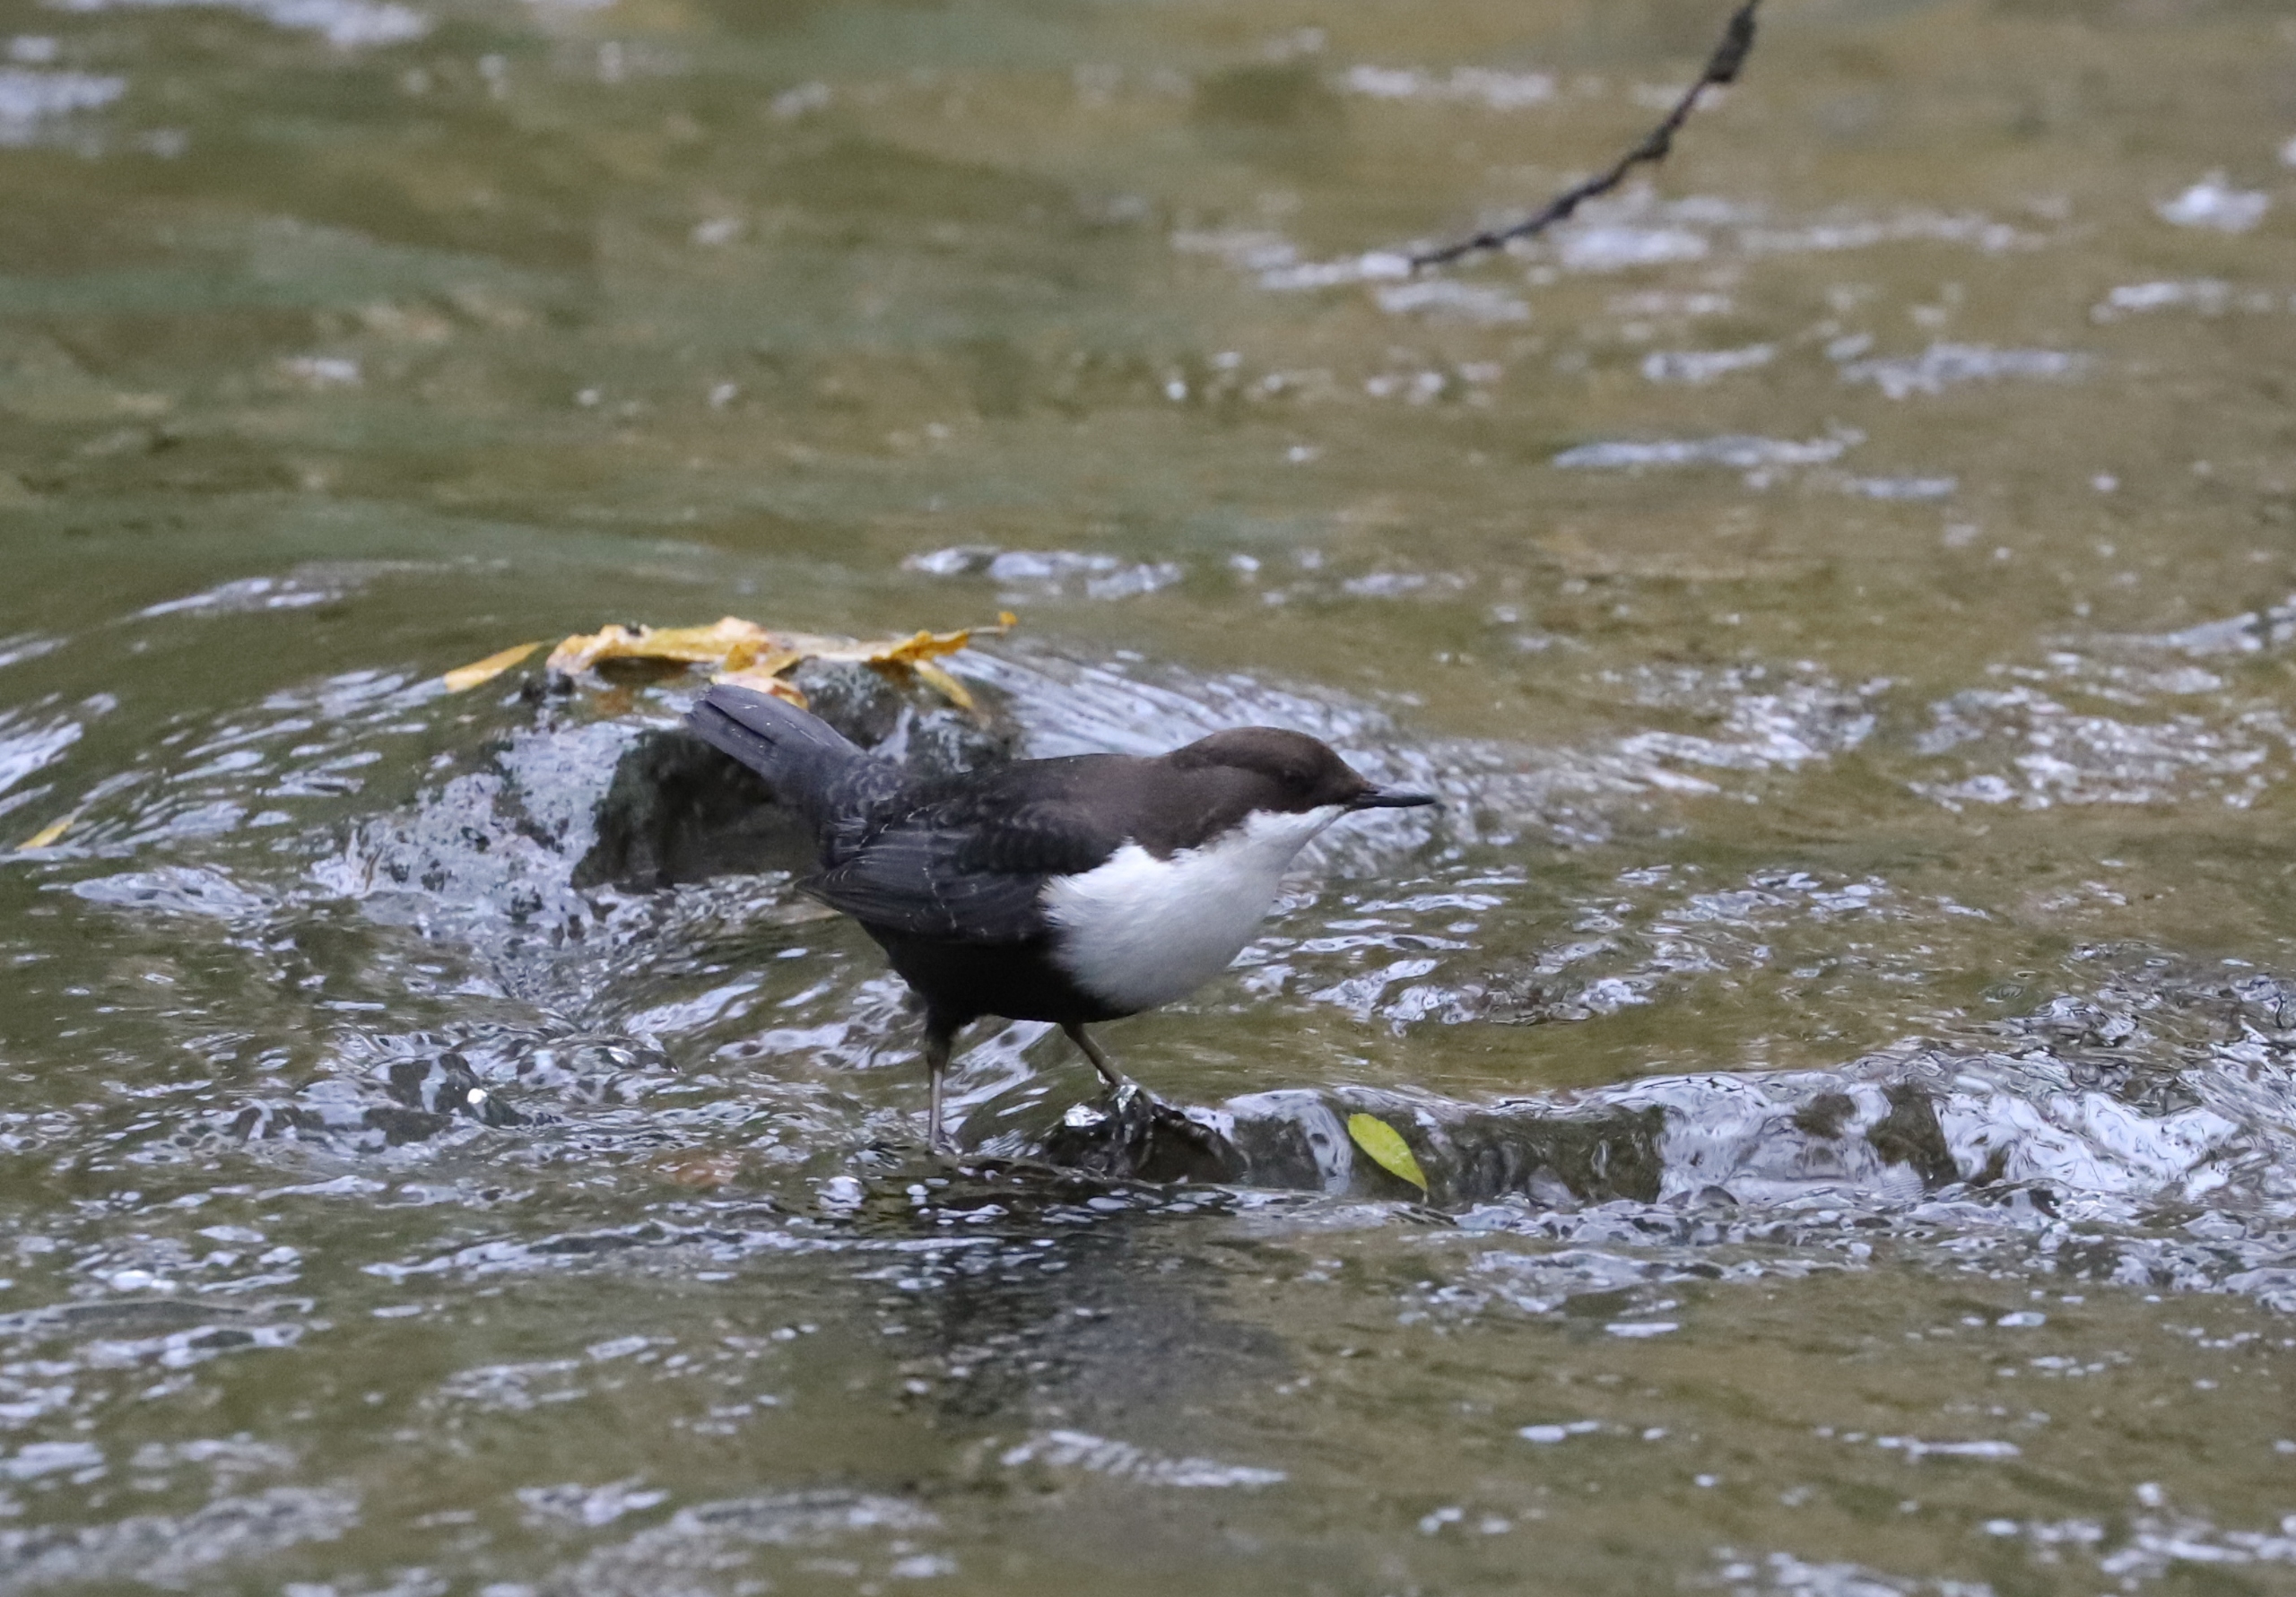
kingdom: Animalia
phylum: Chordata
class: Aves
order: Passeriformes
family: Cinclidae
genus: Cinclus
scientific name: Cinclus cinclus
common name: Vandstær
